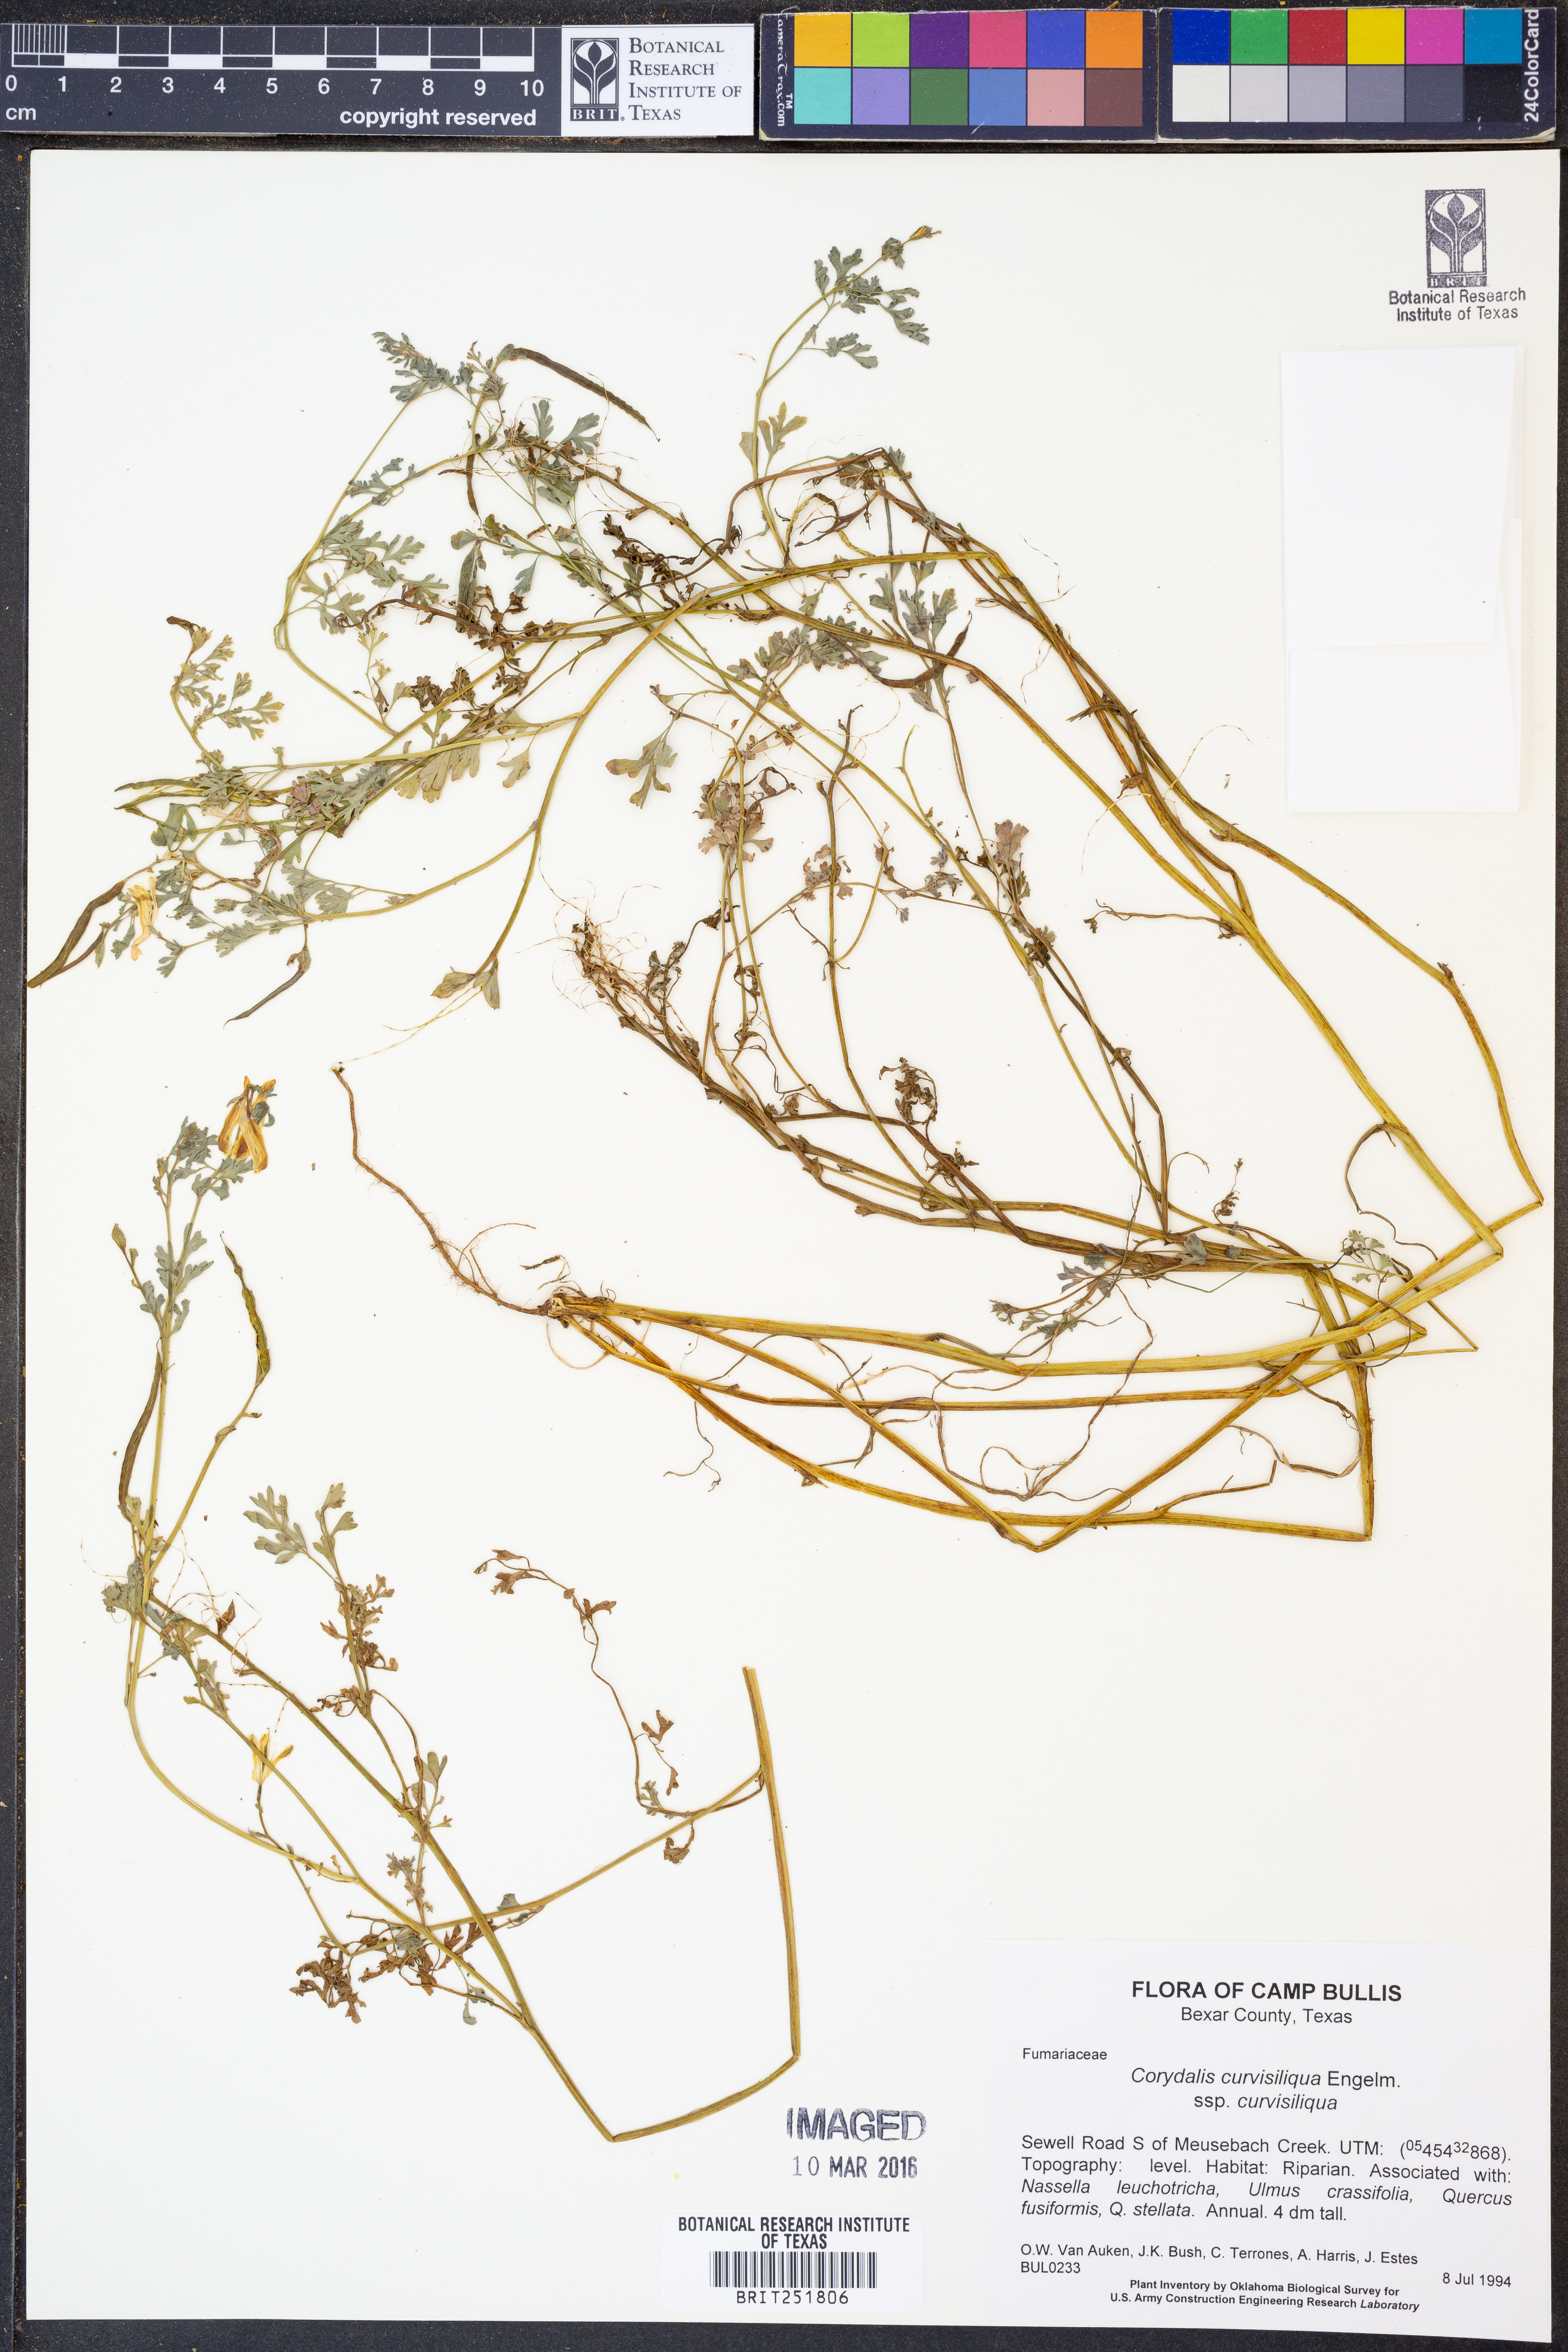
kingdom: Plantae
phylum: Tracheophyta
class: Magnoliopsida
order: Ranunculales
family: Papaveraceae
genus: Corydalis
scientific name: Corydalis curvisiliqua
